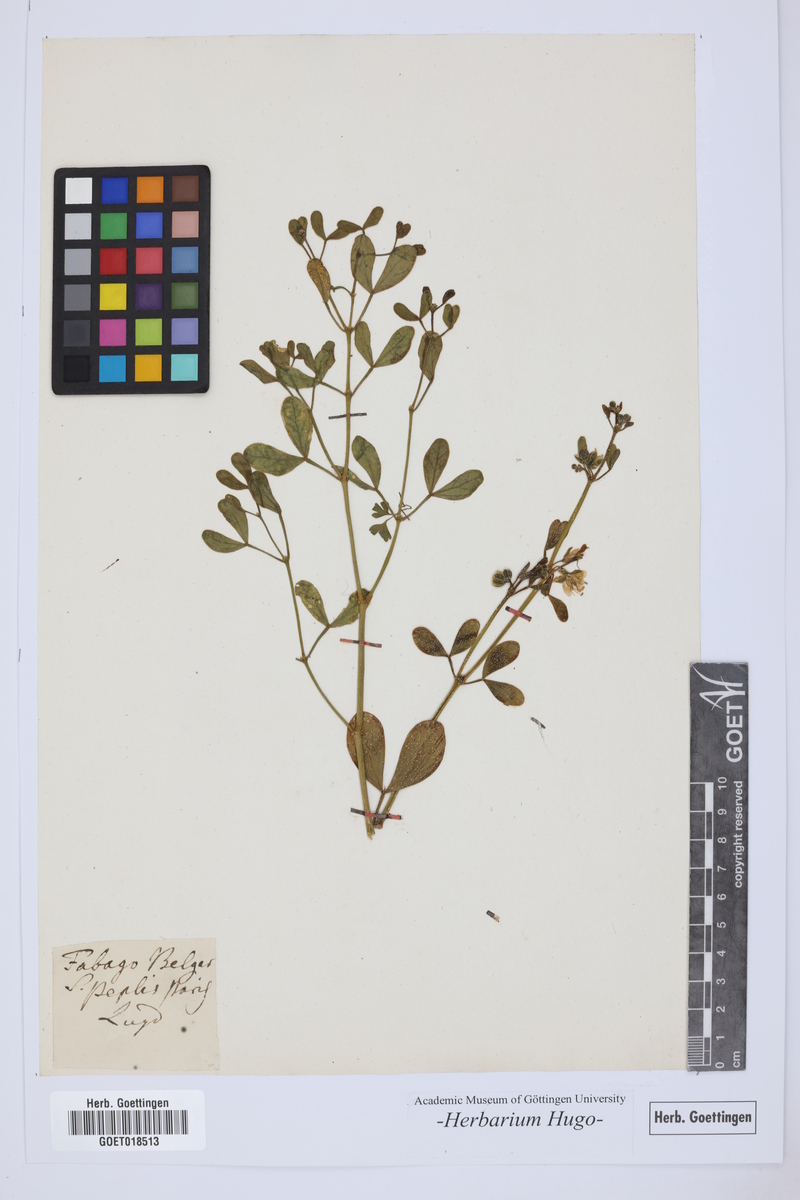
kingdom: Plantae
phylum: Tracheophyta
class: Magnoliopsida
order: Zygophyllales
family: Zygophyllaceae
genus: Fabago
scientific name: Fabago
